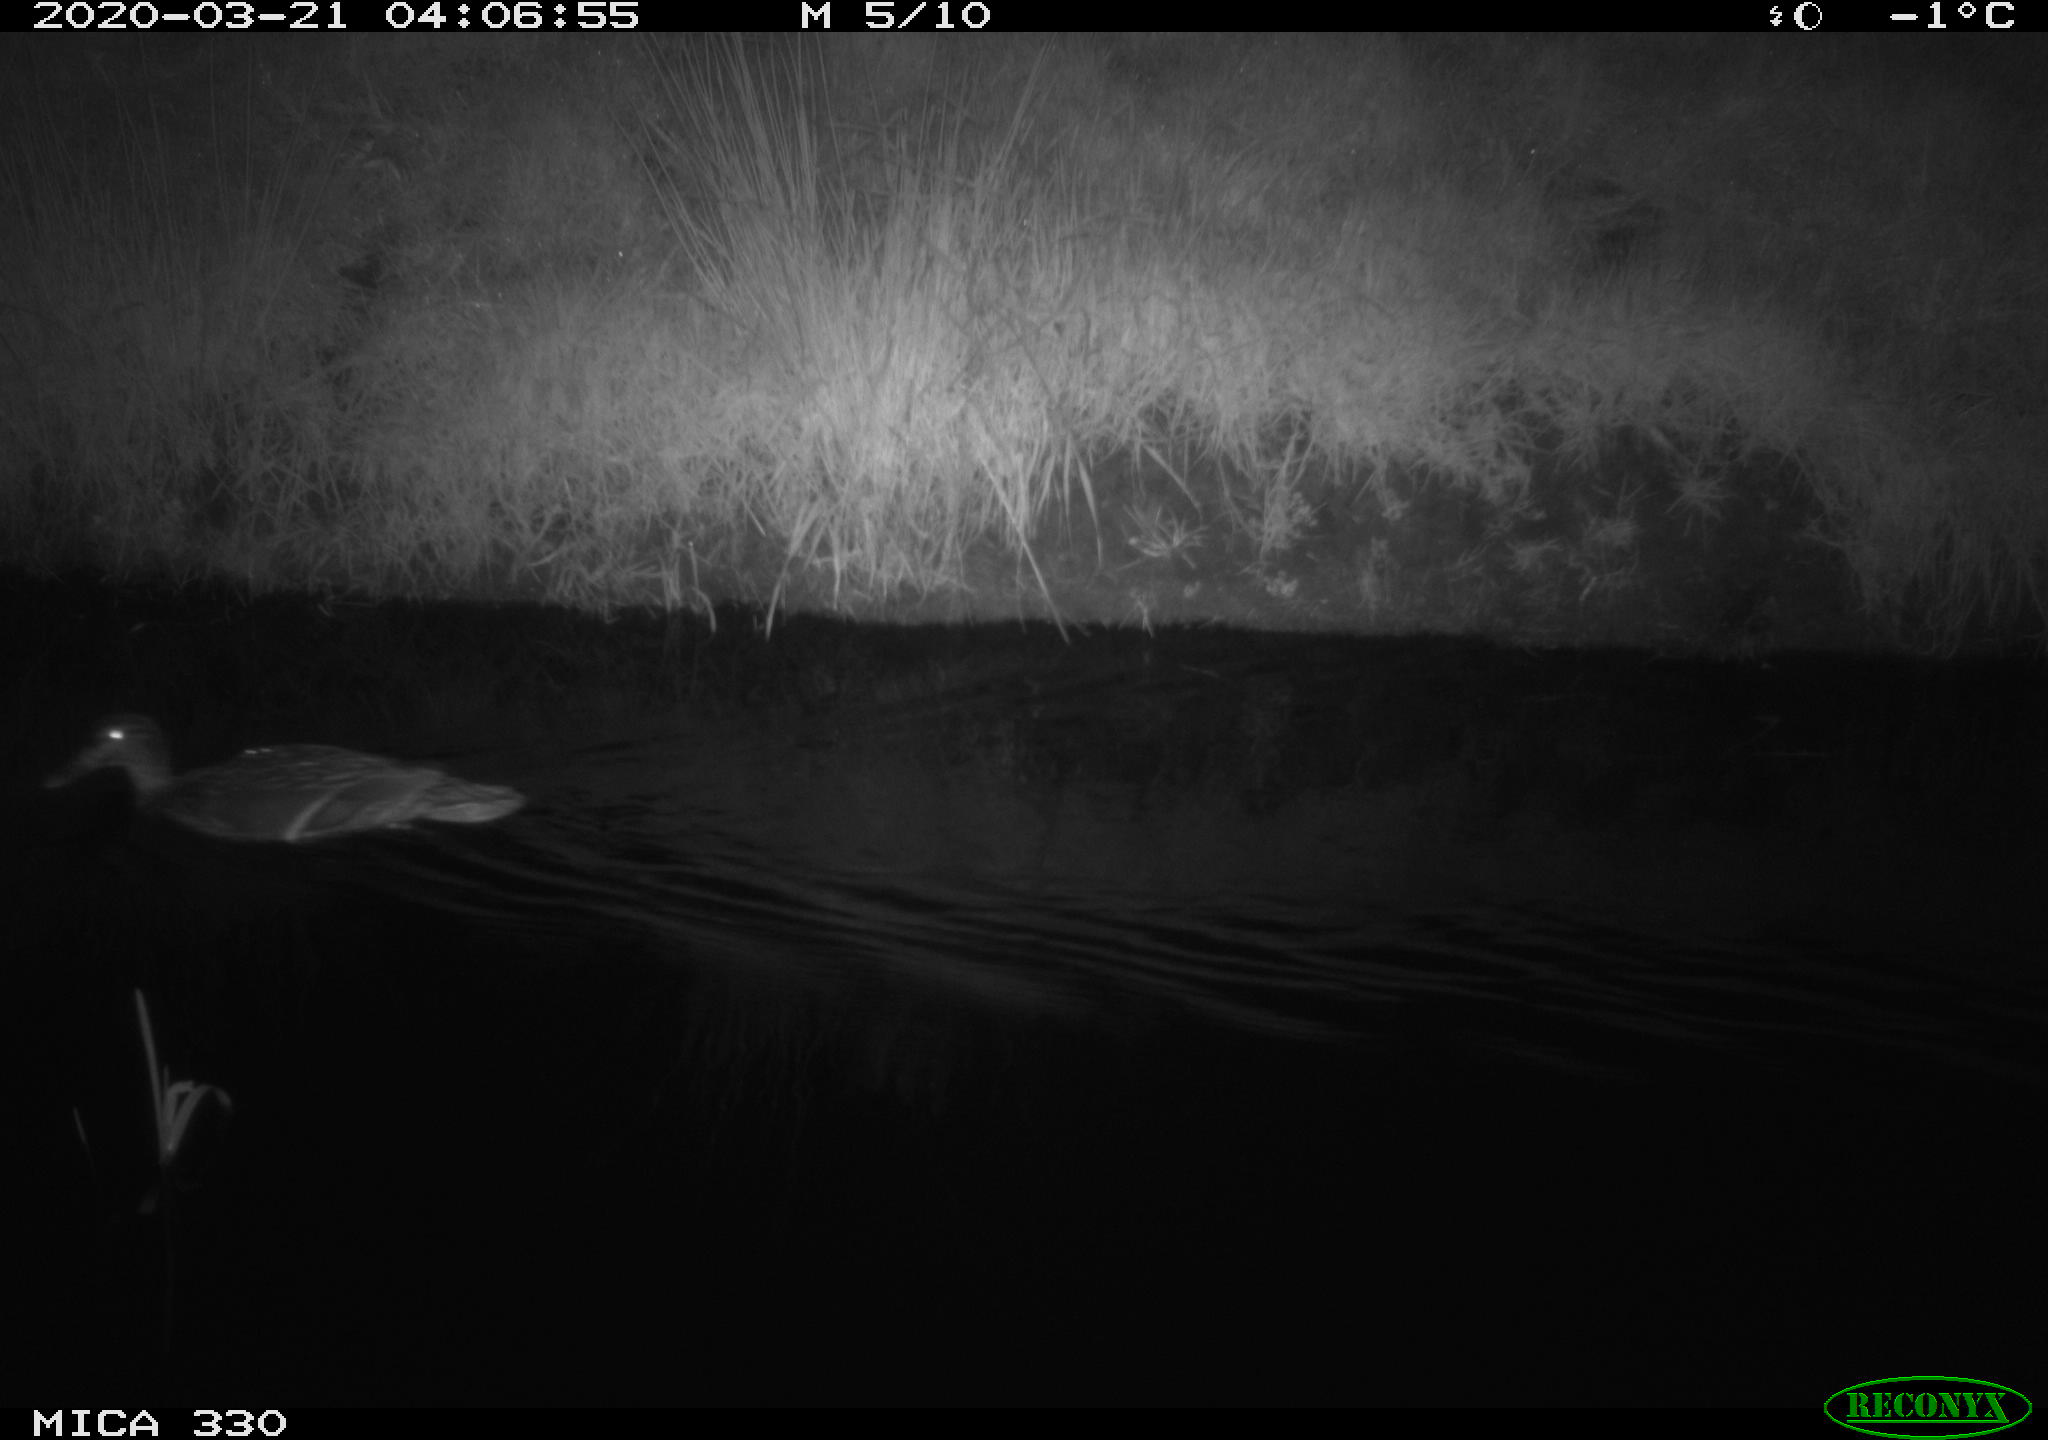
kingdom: Animalia
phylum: Chordata
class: Aves
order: Anseriformes
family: Anatidae
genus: Anas
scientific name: Anas platyrhynchos
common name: Mallard
